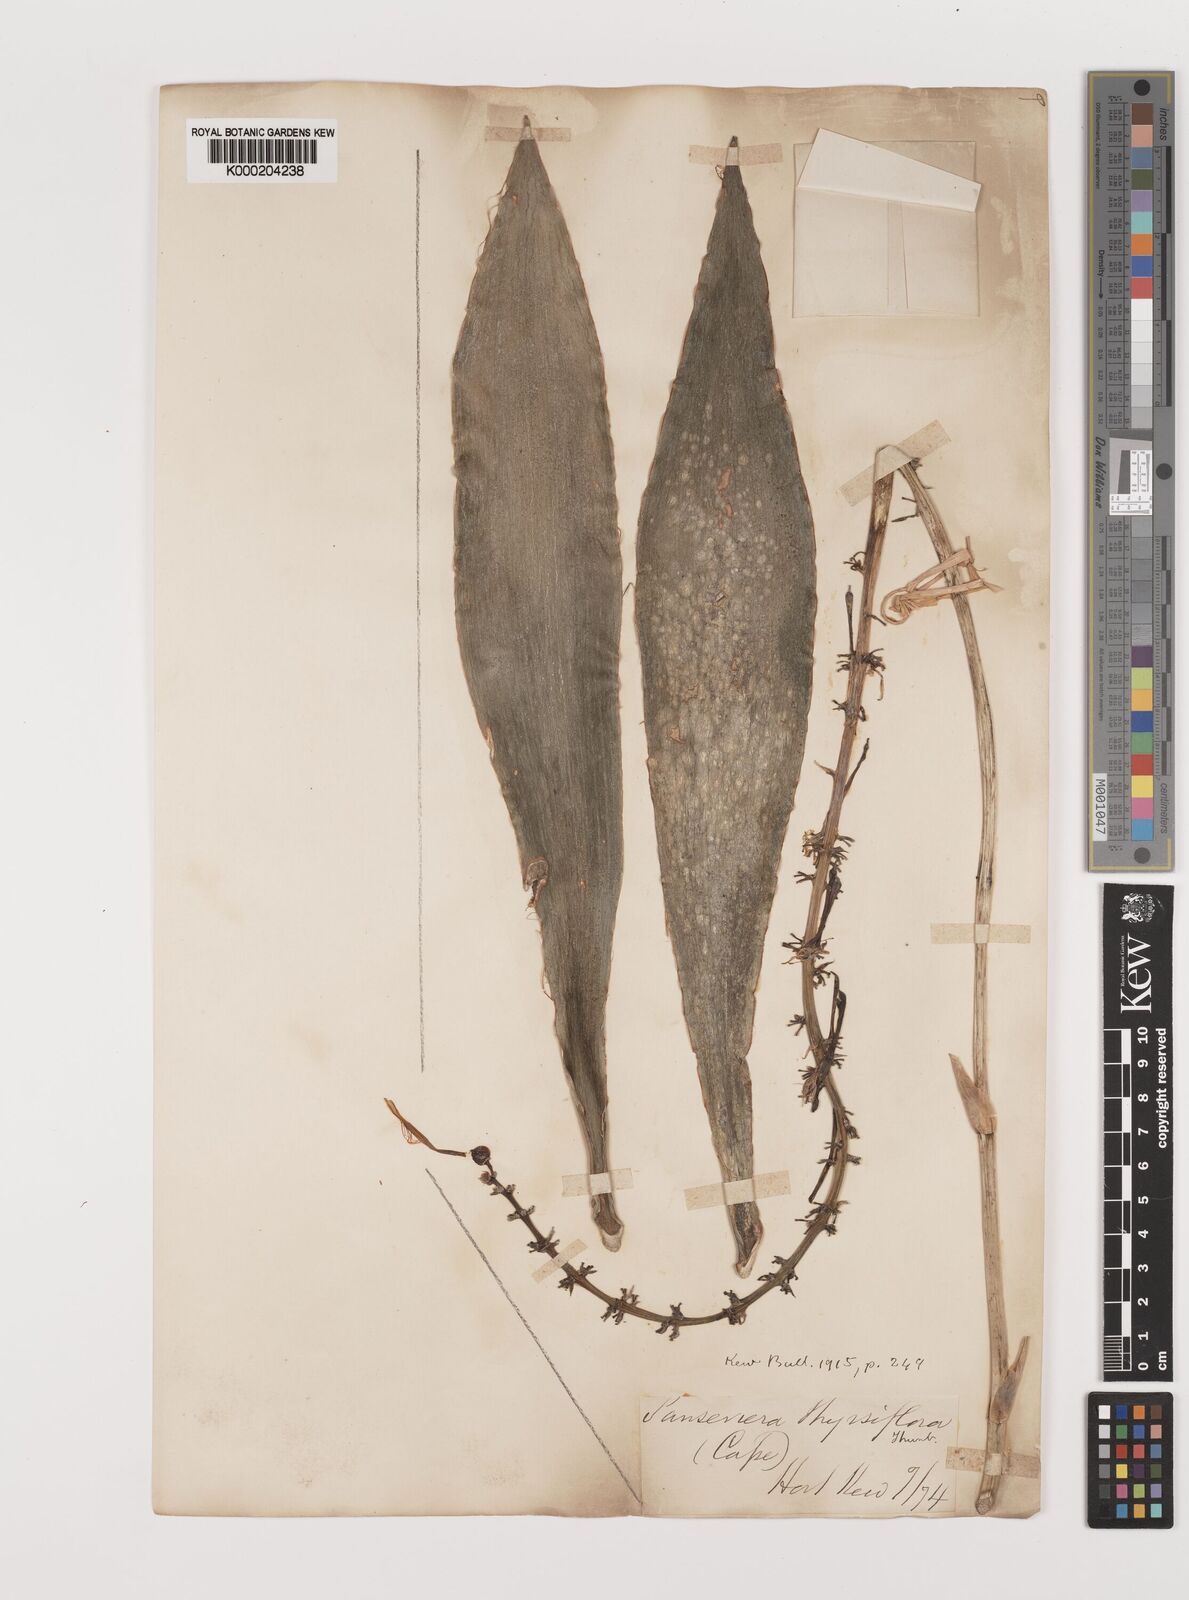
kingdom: Plantae
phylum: Tracheophyta
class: Liliopsida
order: Asparagales
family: Asparagaceae
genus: Dracaena
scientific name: Dracaena hyacinthoides
